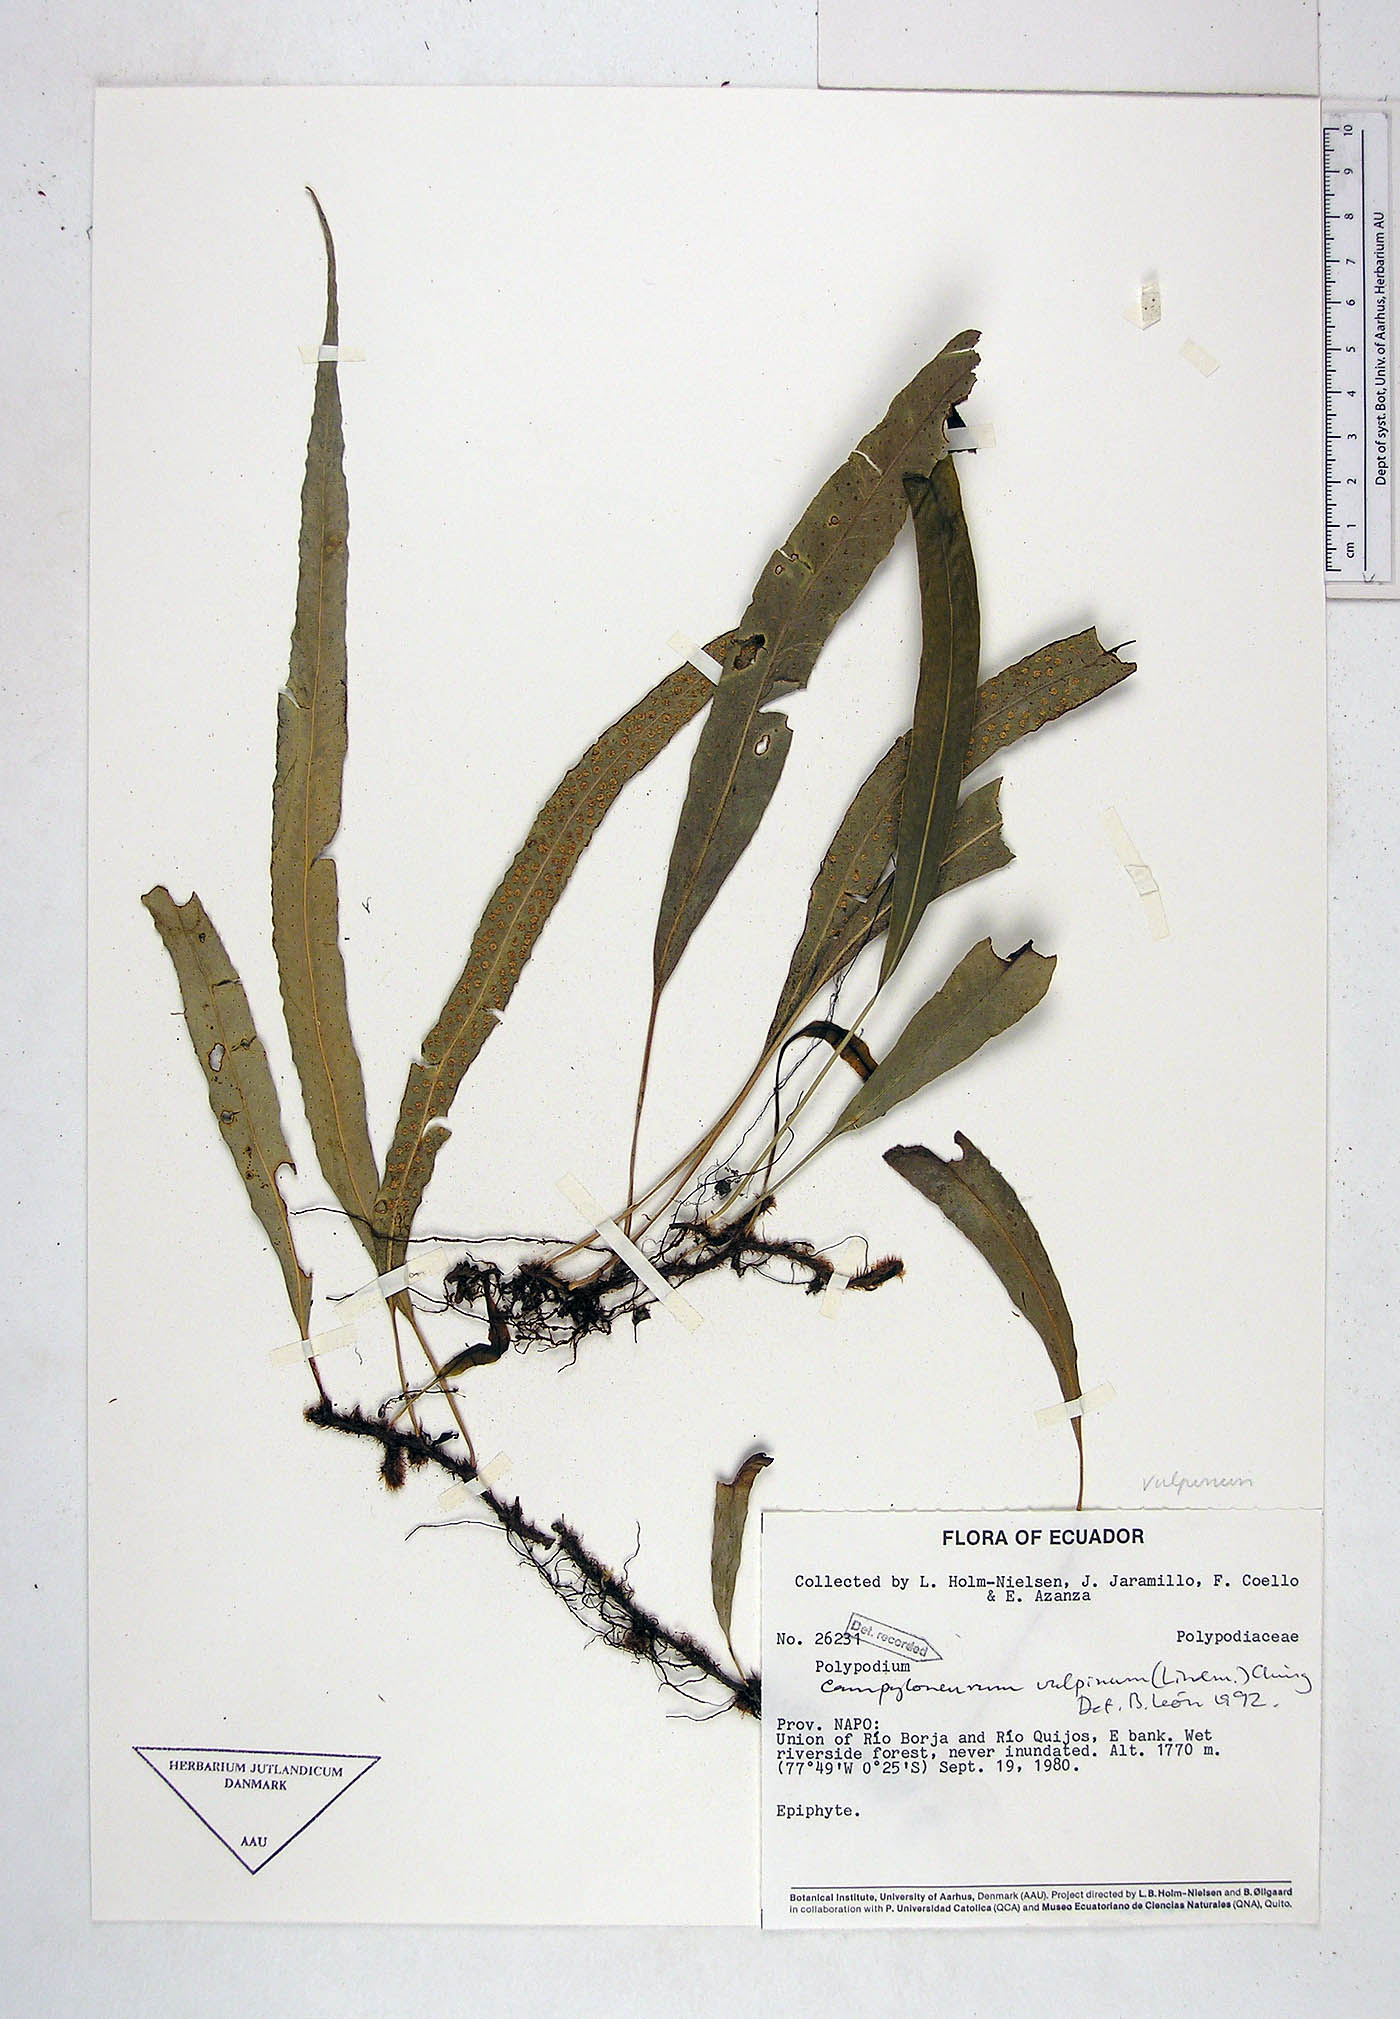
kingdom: Plantae
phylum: Tracheophyta
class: Polypodiopsida
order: Polypodiales
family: Polypodiaceae
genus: Campyloneurum
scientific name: Campyloneurum
